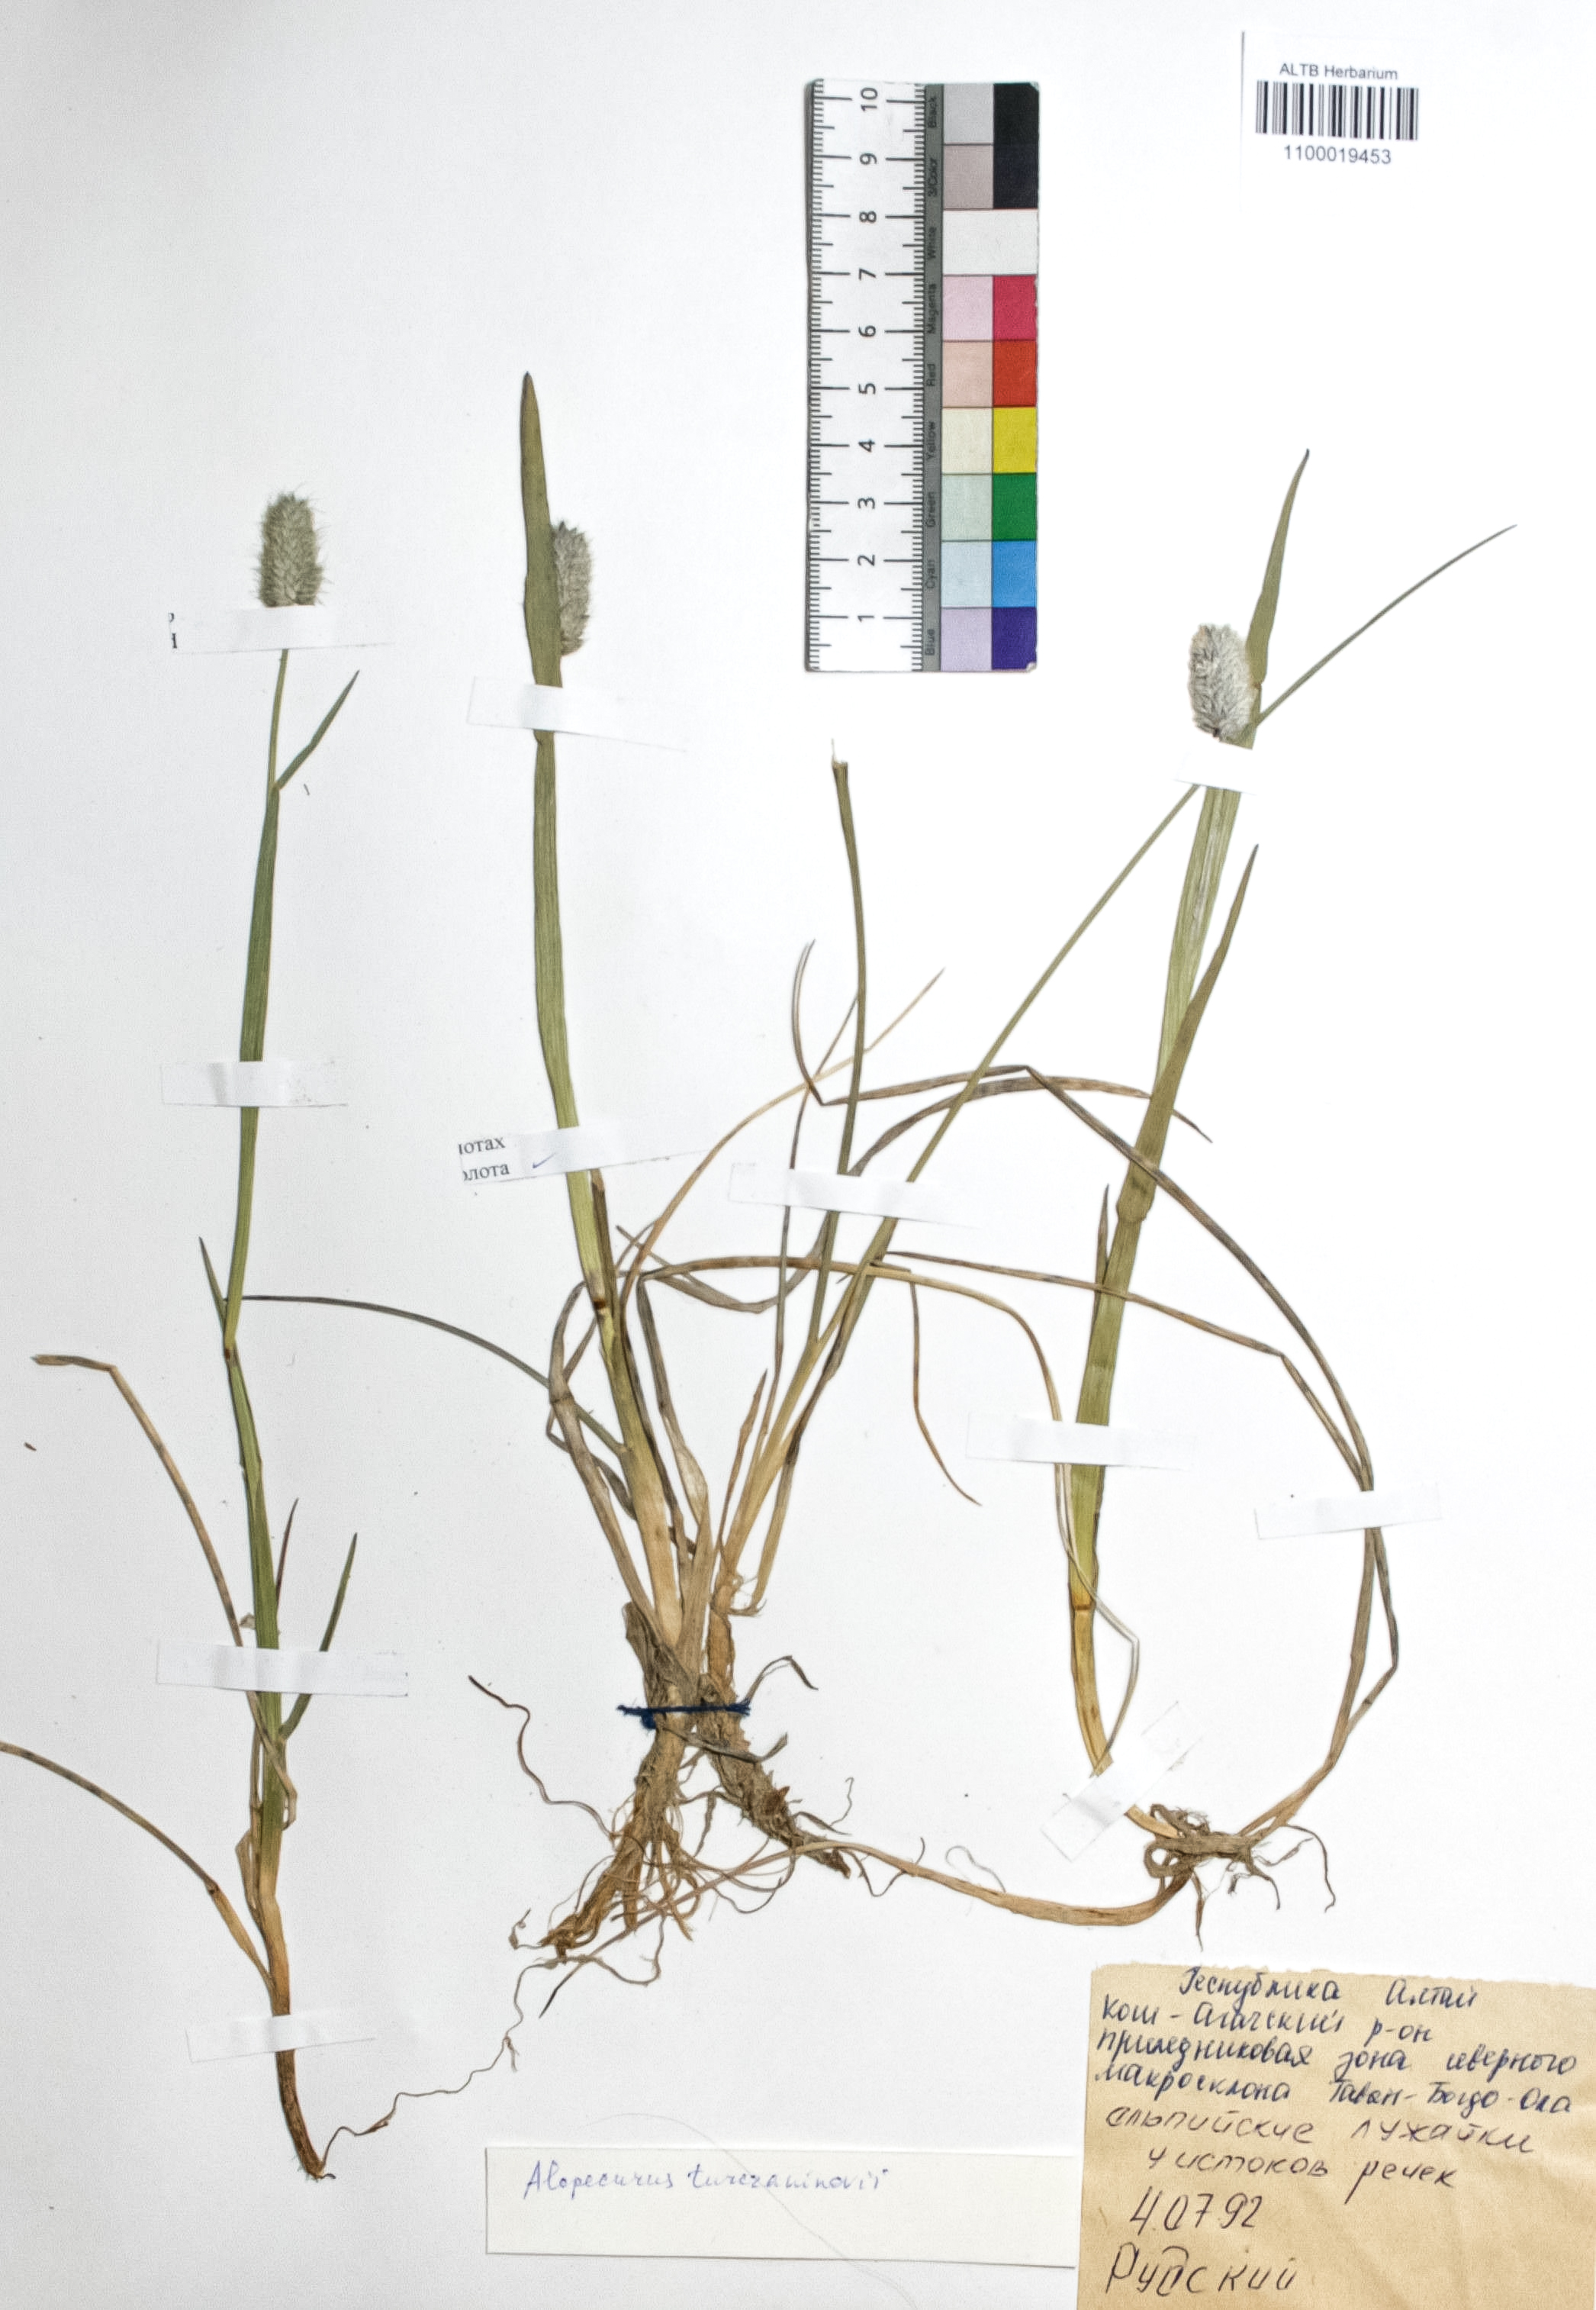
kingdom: Plantae
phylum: Tracheophyta
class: Liliopsida
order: Poales
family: Poaceae
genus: Alopecurus
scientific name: Alopecurus turczaninovii
